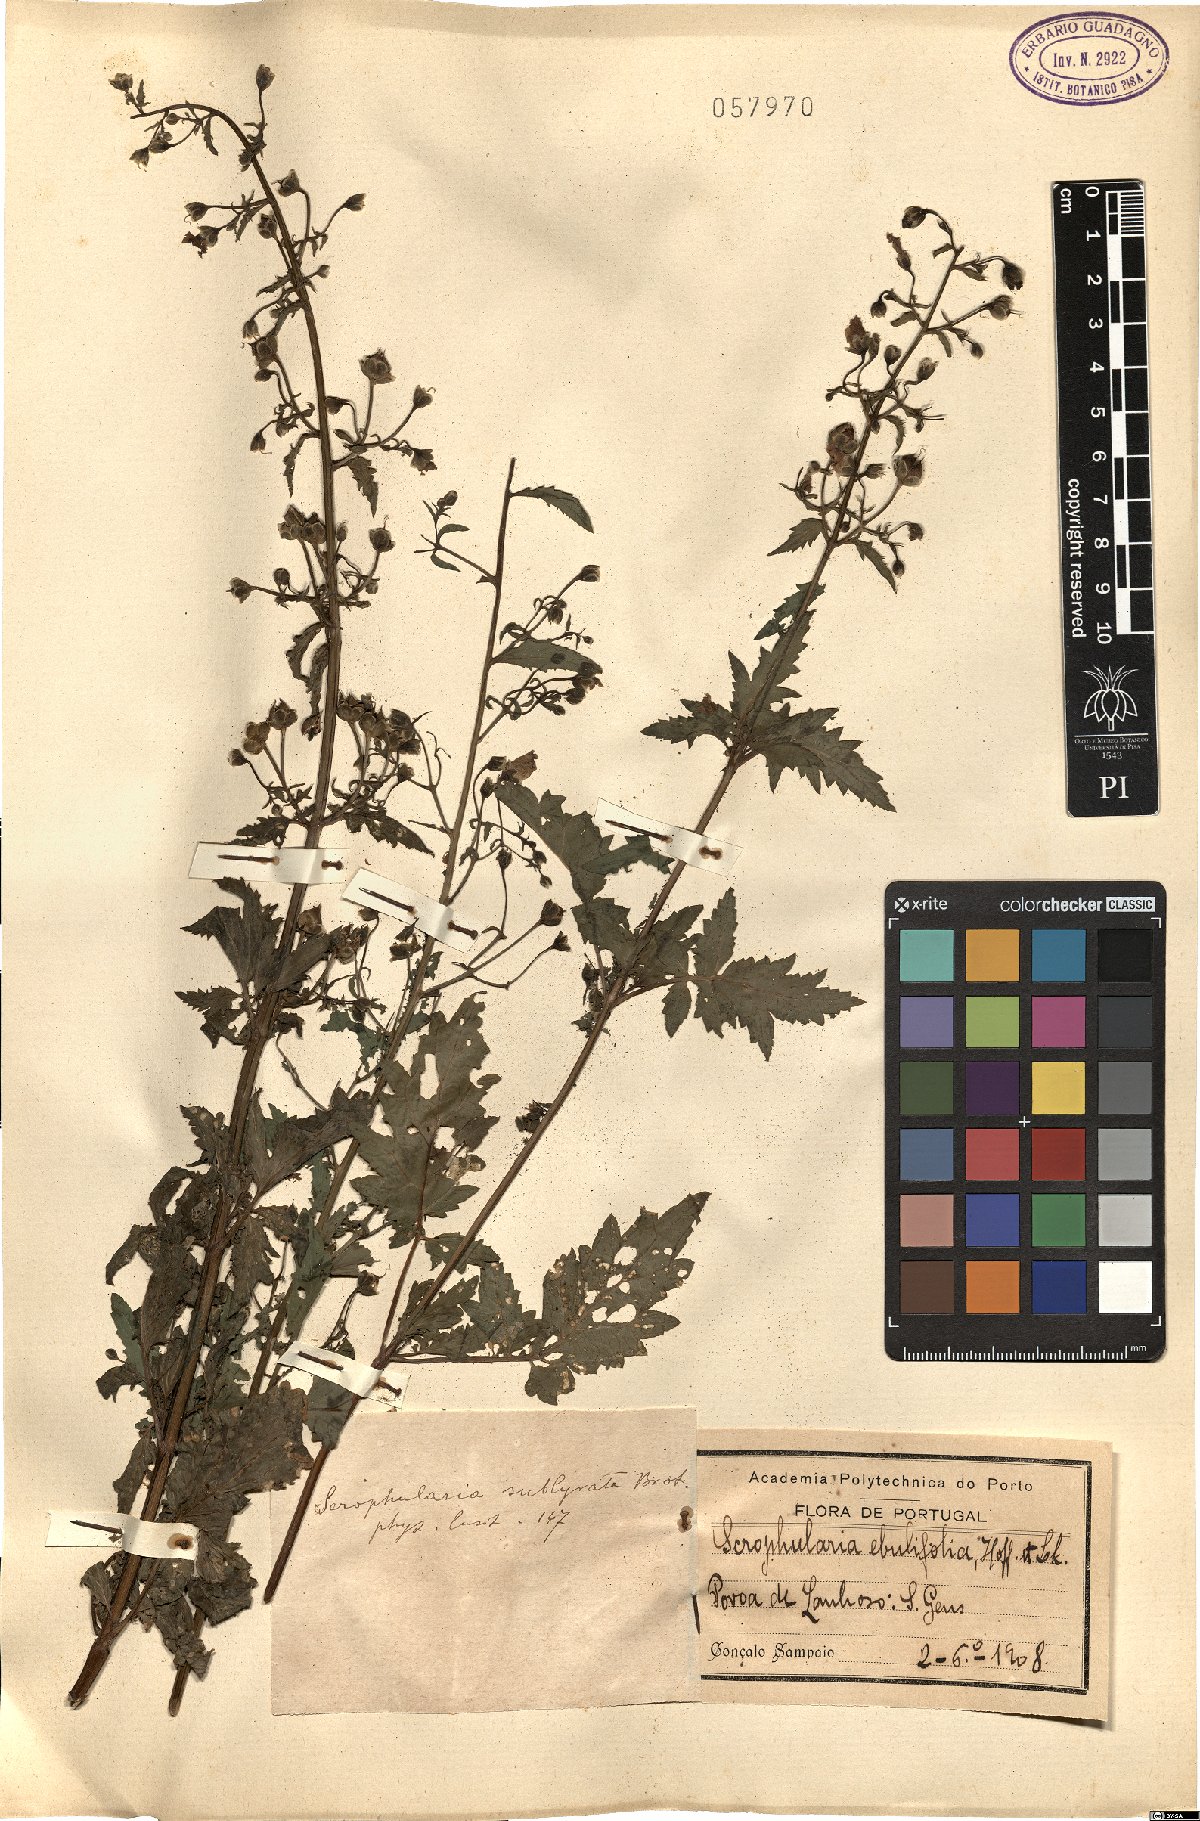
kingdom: Plantae
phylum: Tracheophyta
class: Magnoliopsida
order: Lamiales
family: Scrophulariaceae
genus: Scrophularia
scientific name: Scrophularia sublyrata
